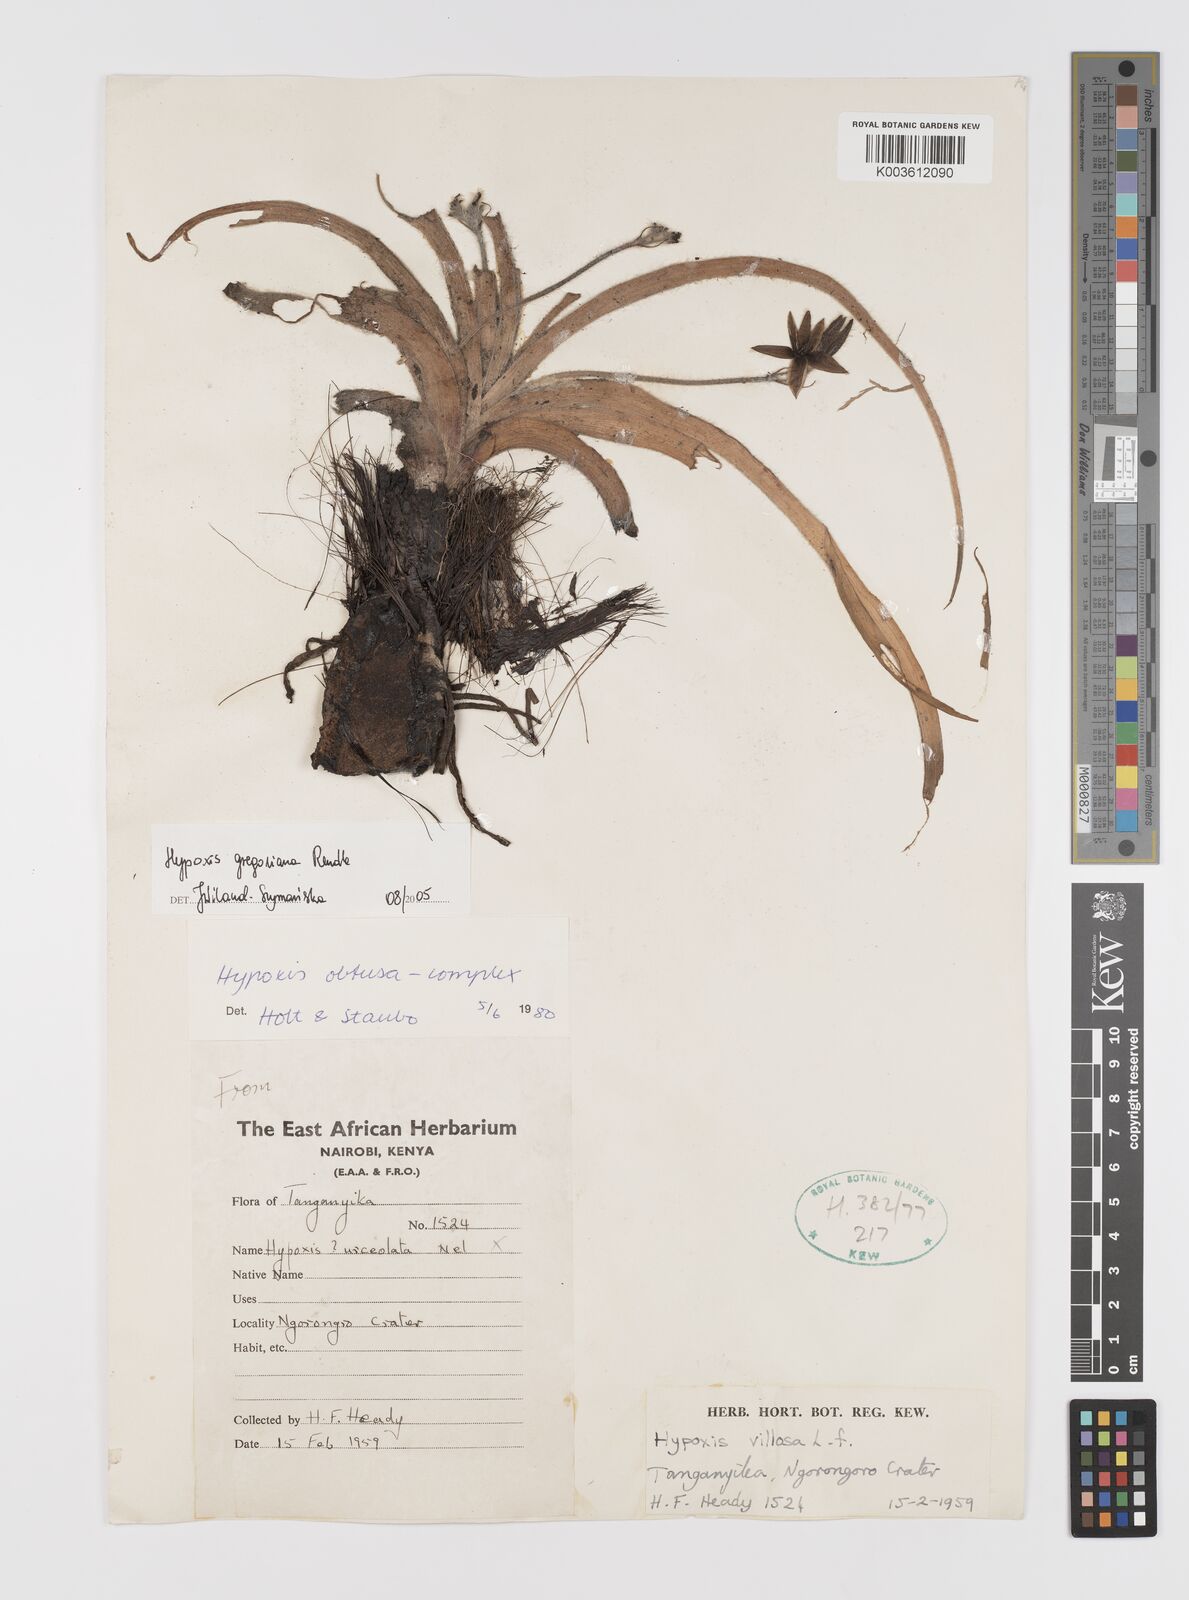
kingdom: Plantae
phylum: Tracheophyta
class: Liliopsida
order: Asparagales
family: Hypoxidaceae
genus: Hypoxis
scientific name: Hypoxis gregoriana
